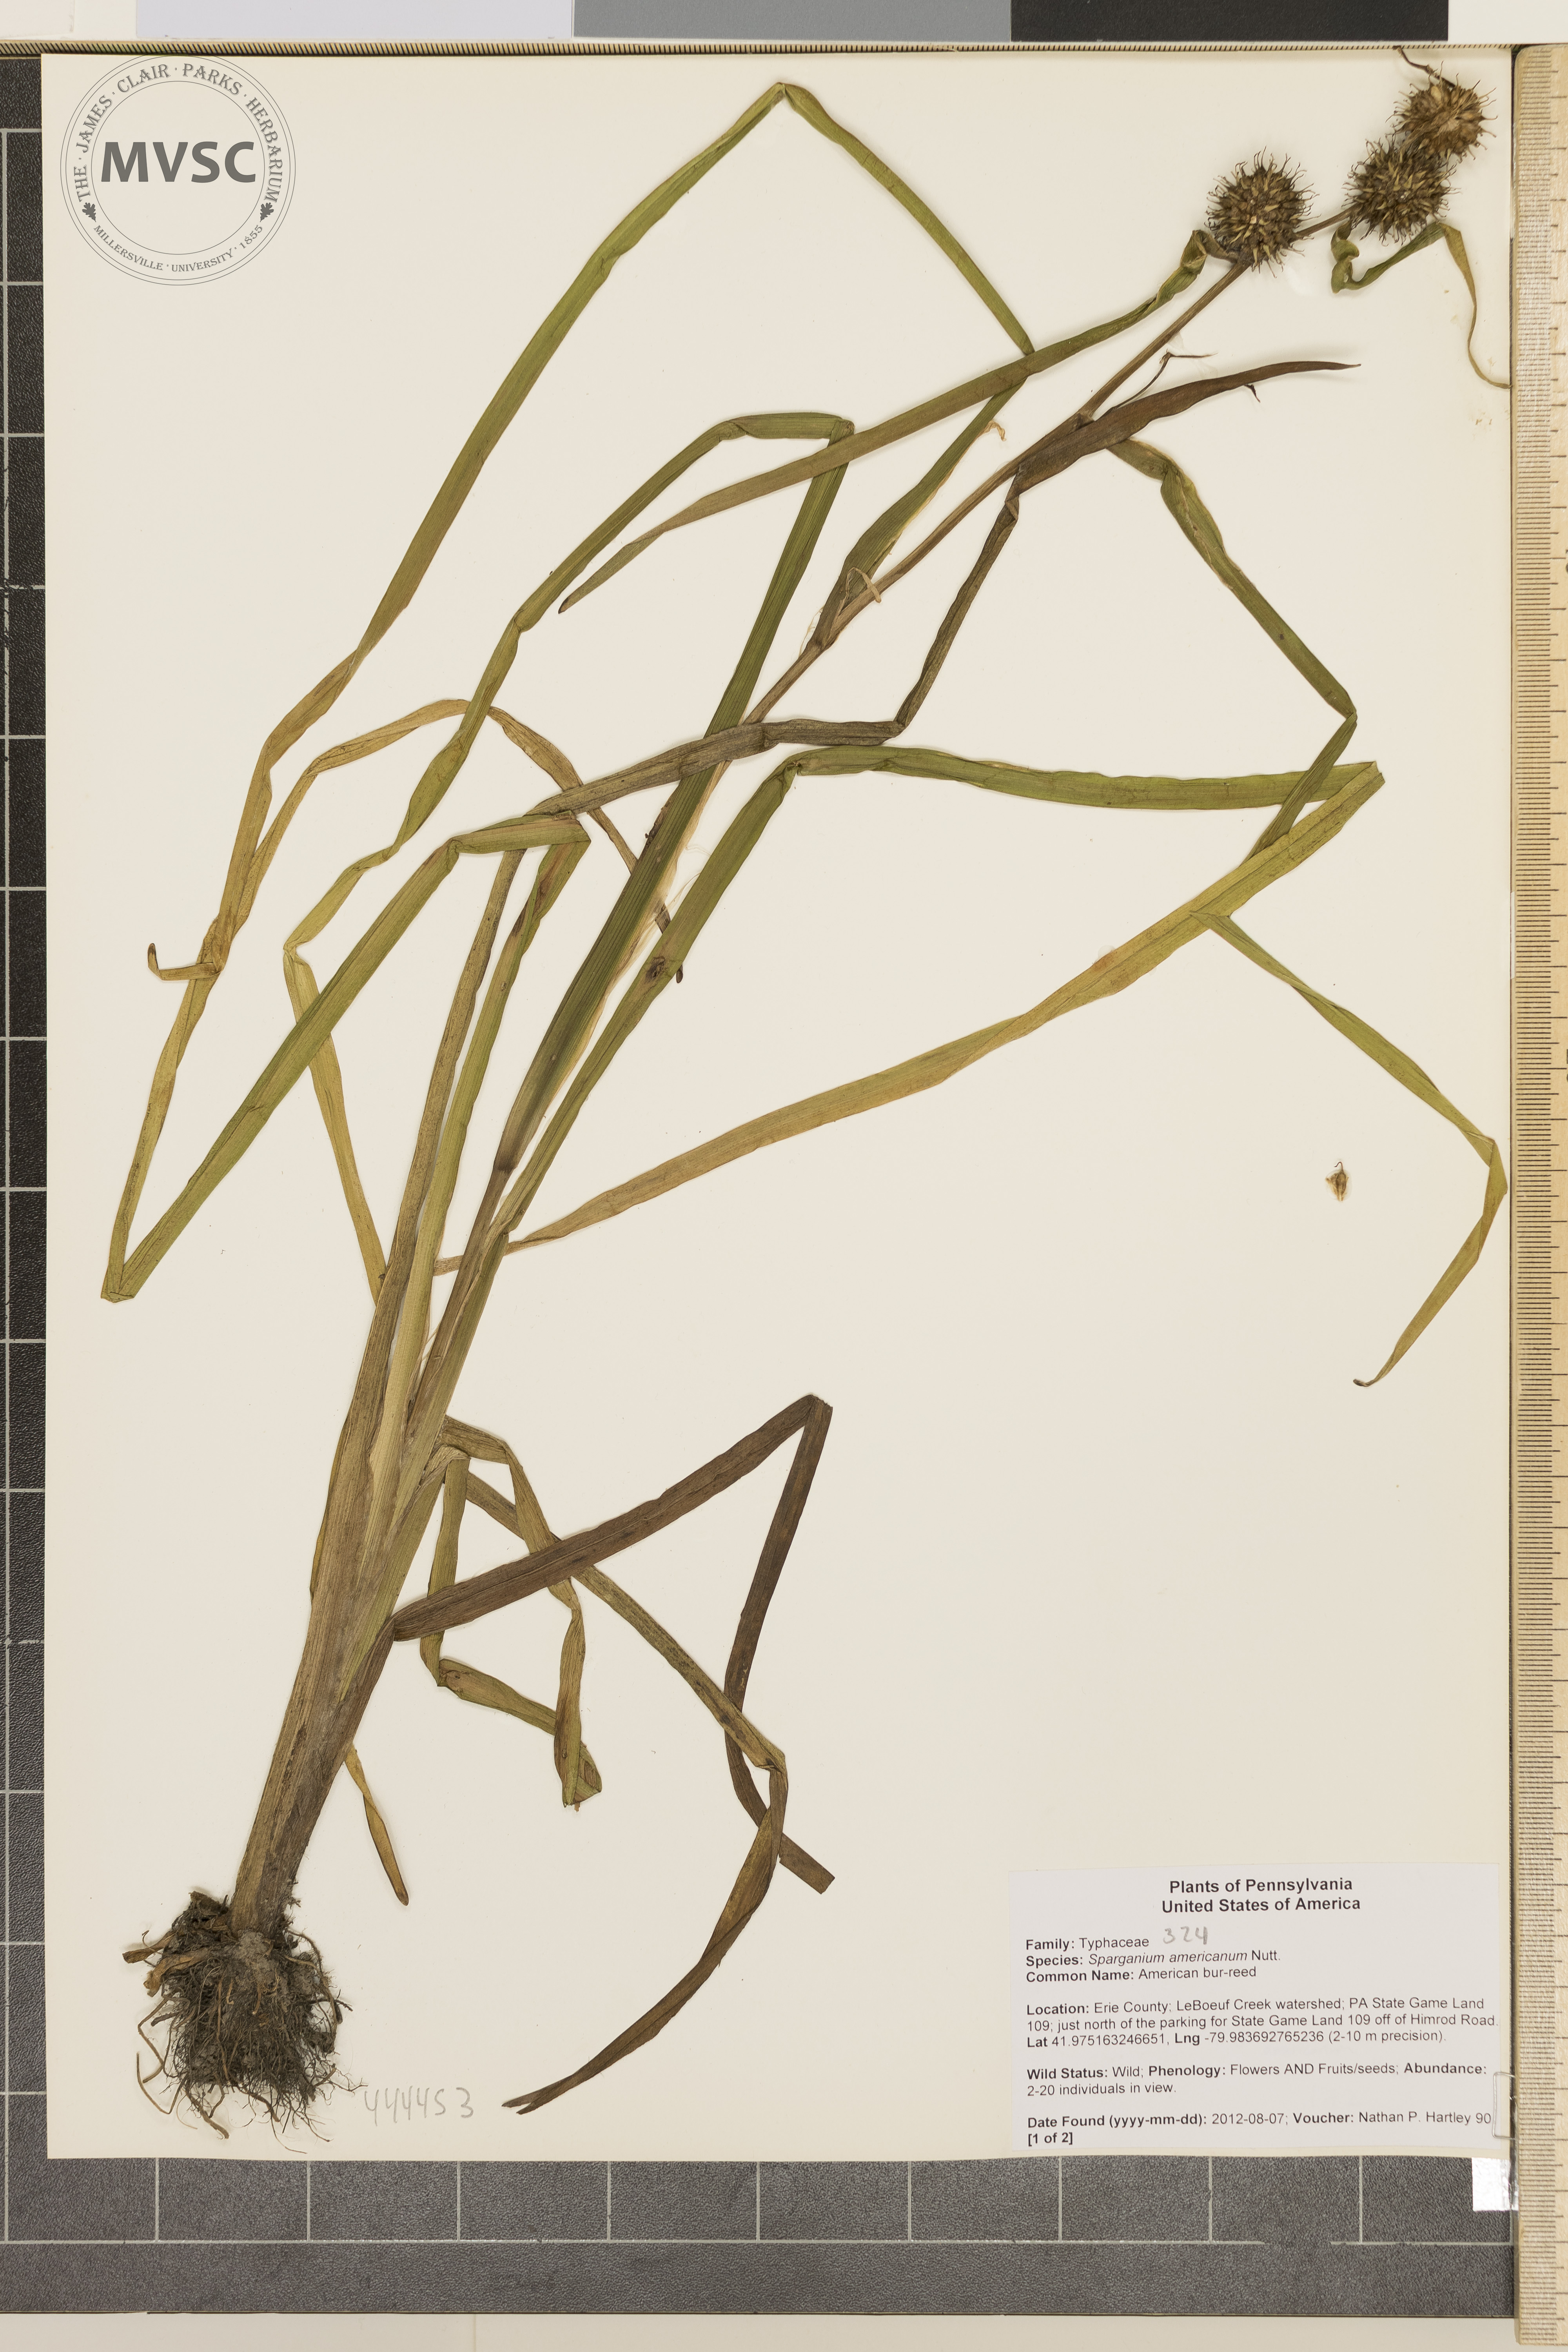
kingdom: Plantae
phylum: Tracheophyta
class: Liliopsida
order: Poales
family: Typhaceae
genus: Sparganium
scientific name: Sparganium americanum
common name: American bur-reed
